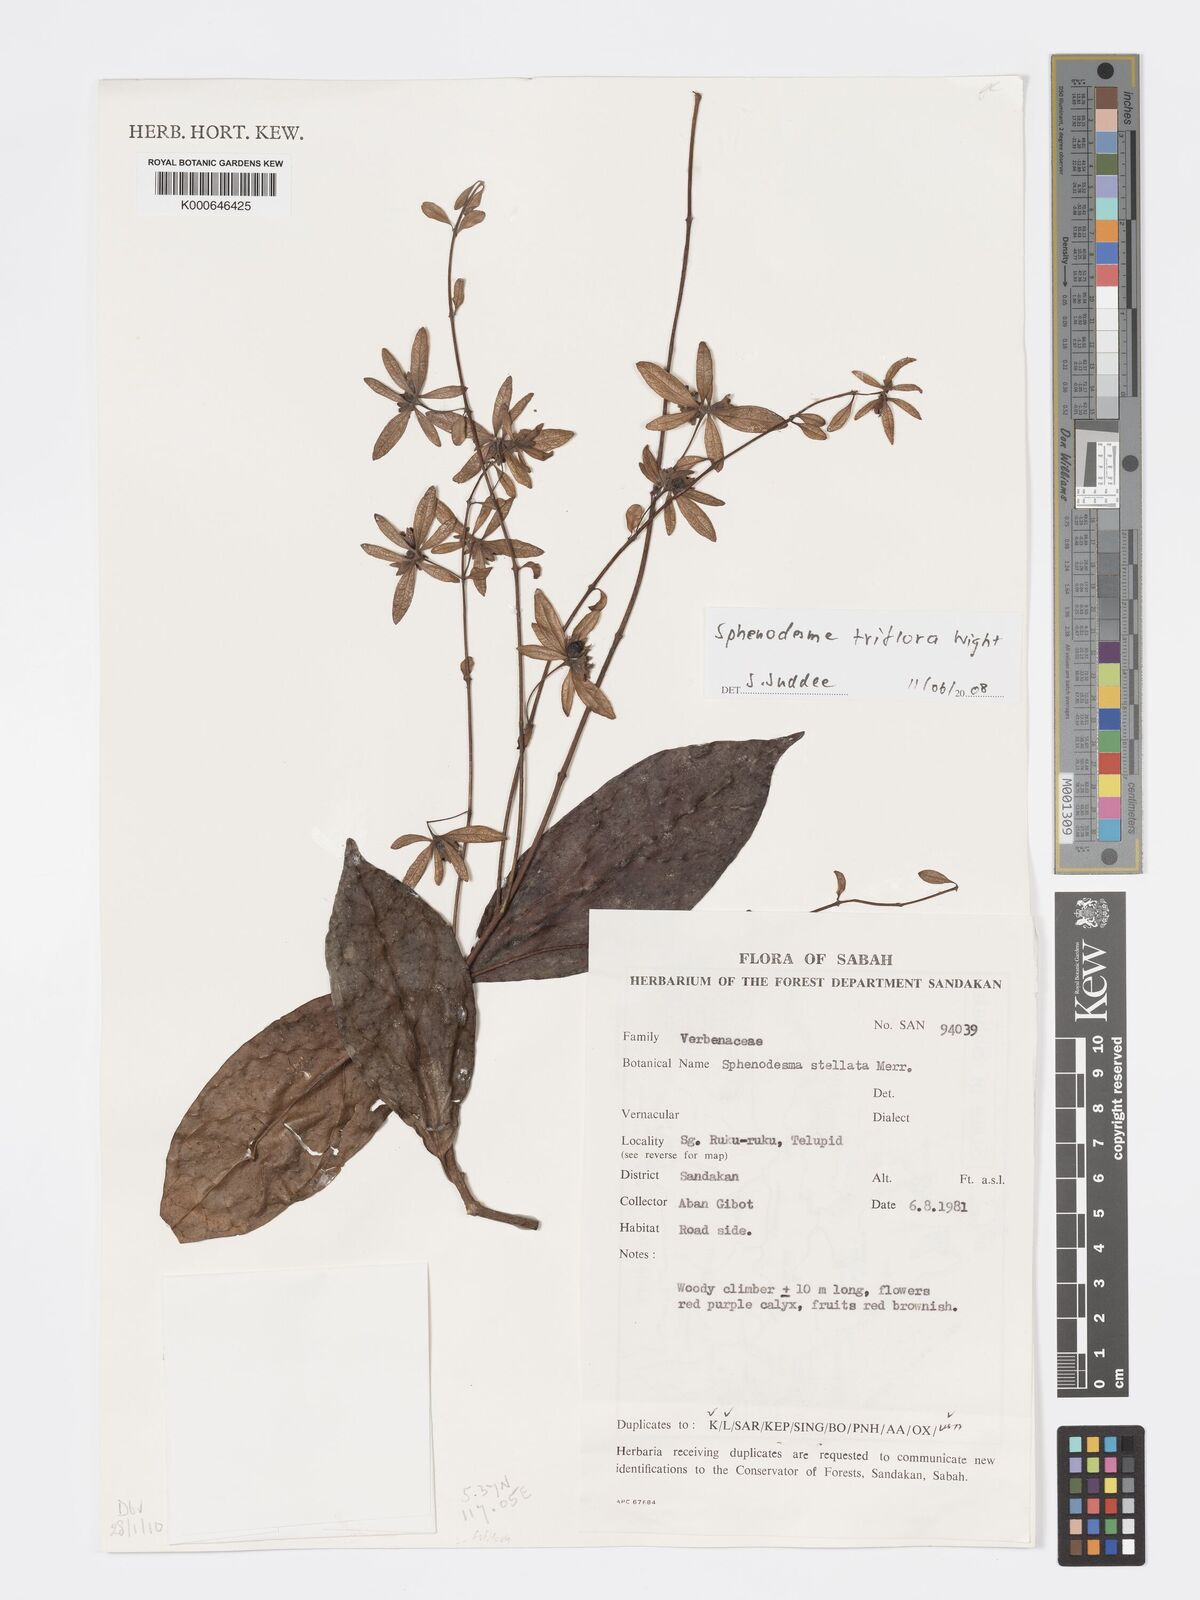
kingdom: Plantae
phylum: Tracheophyta
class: Magnoliopsida
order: Lamiales
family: Lamiaceae
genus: Sphenodesme
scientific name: Sphenodesme triflora
